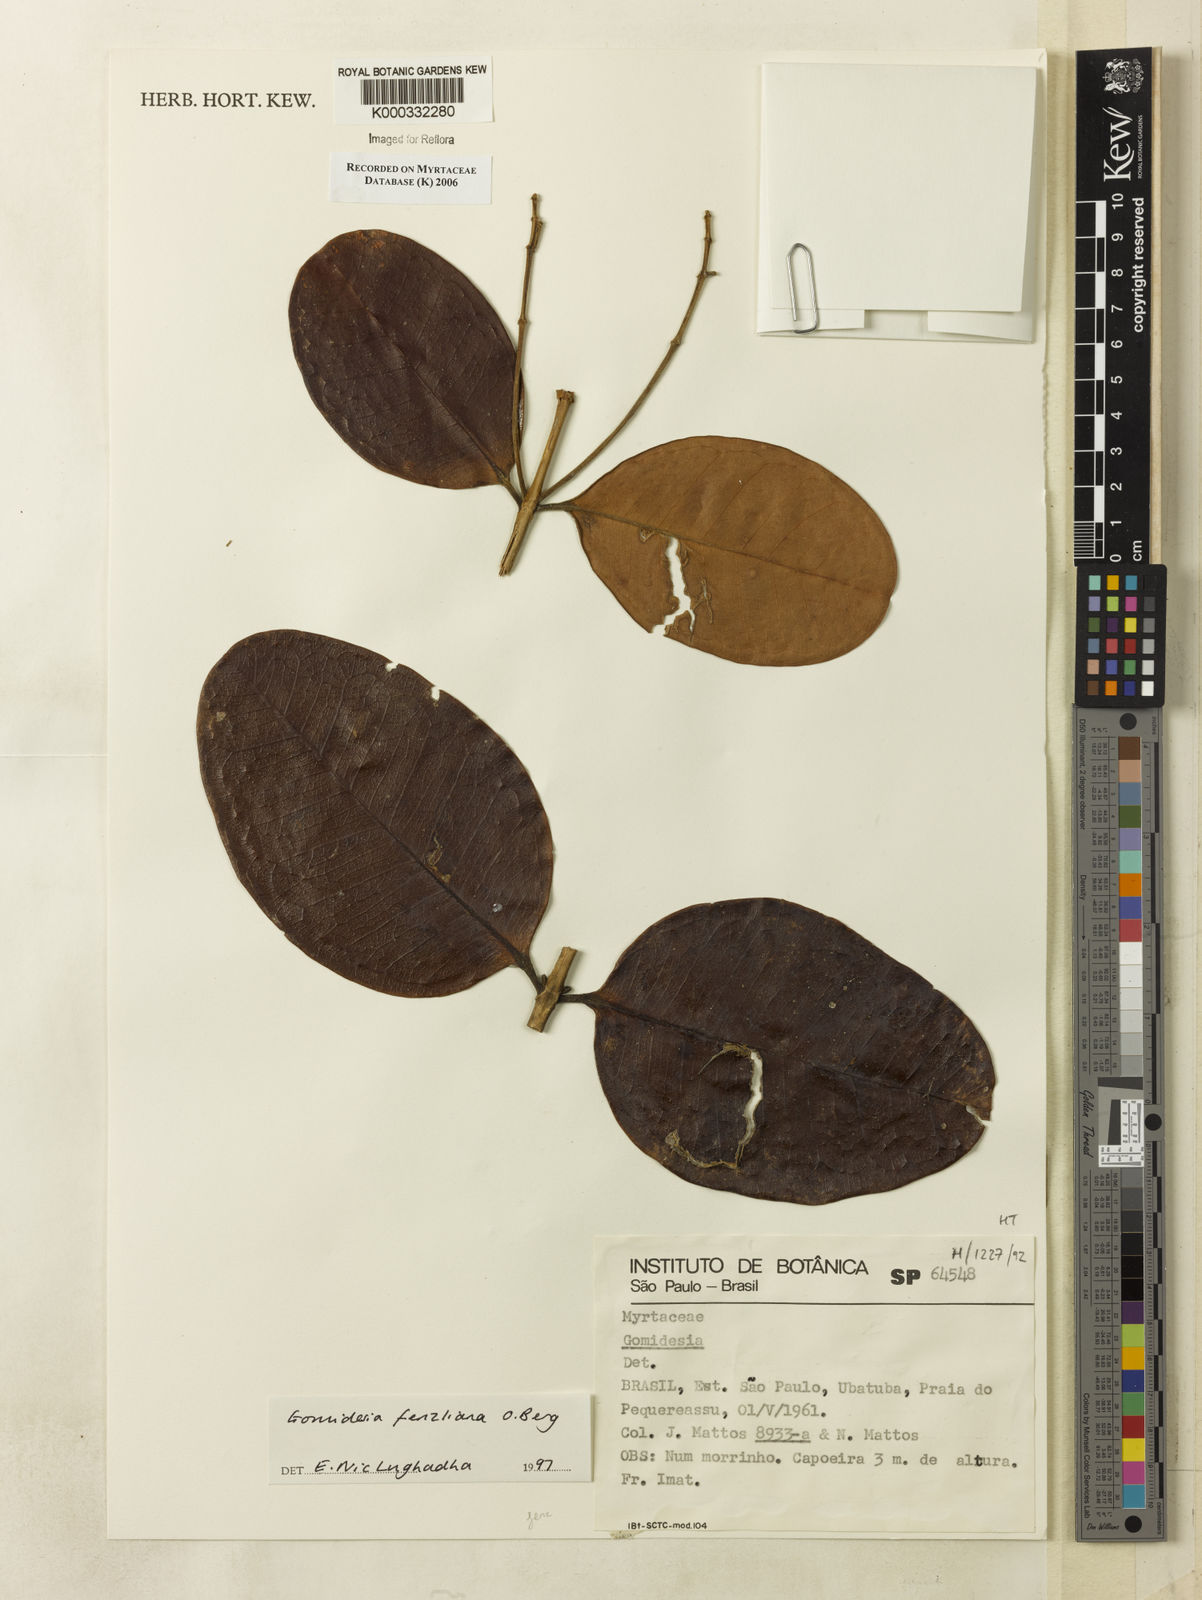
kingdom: Plantae
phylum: Tracheophyta
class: Magnoliopsida
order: Myrtales
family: Myrtaceae
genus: Myrcia
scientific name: Myrcia ilheosensis
